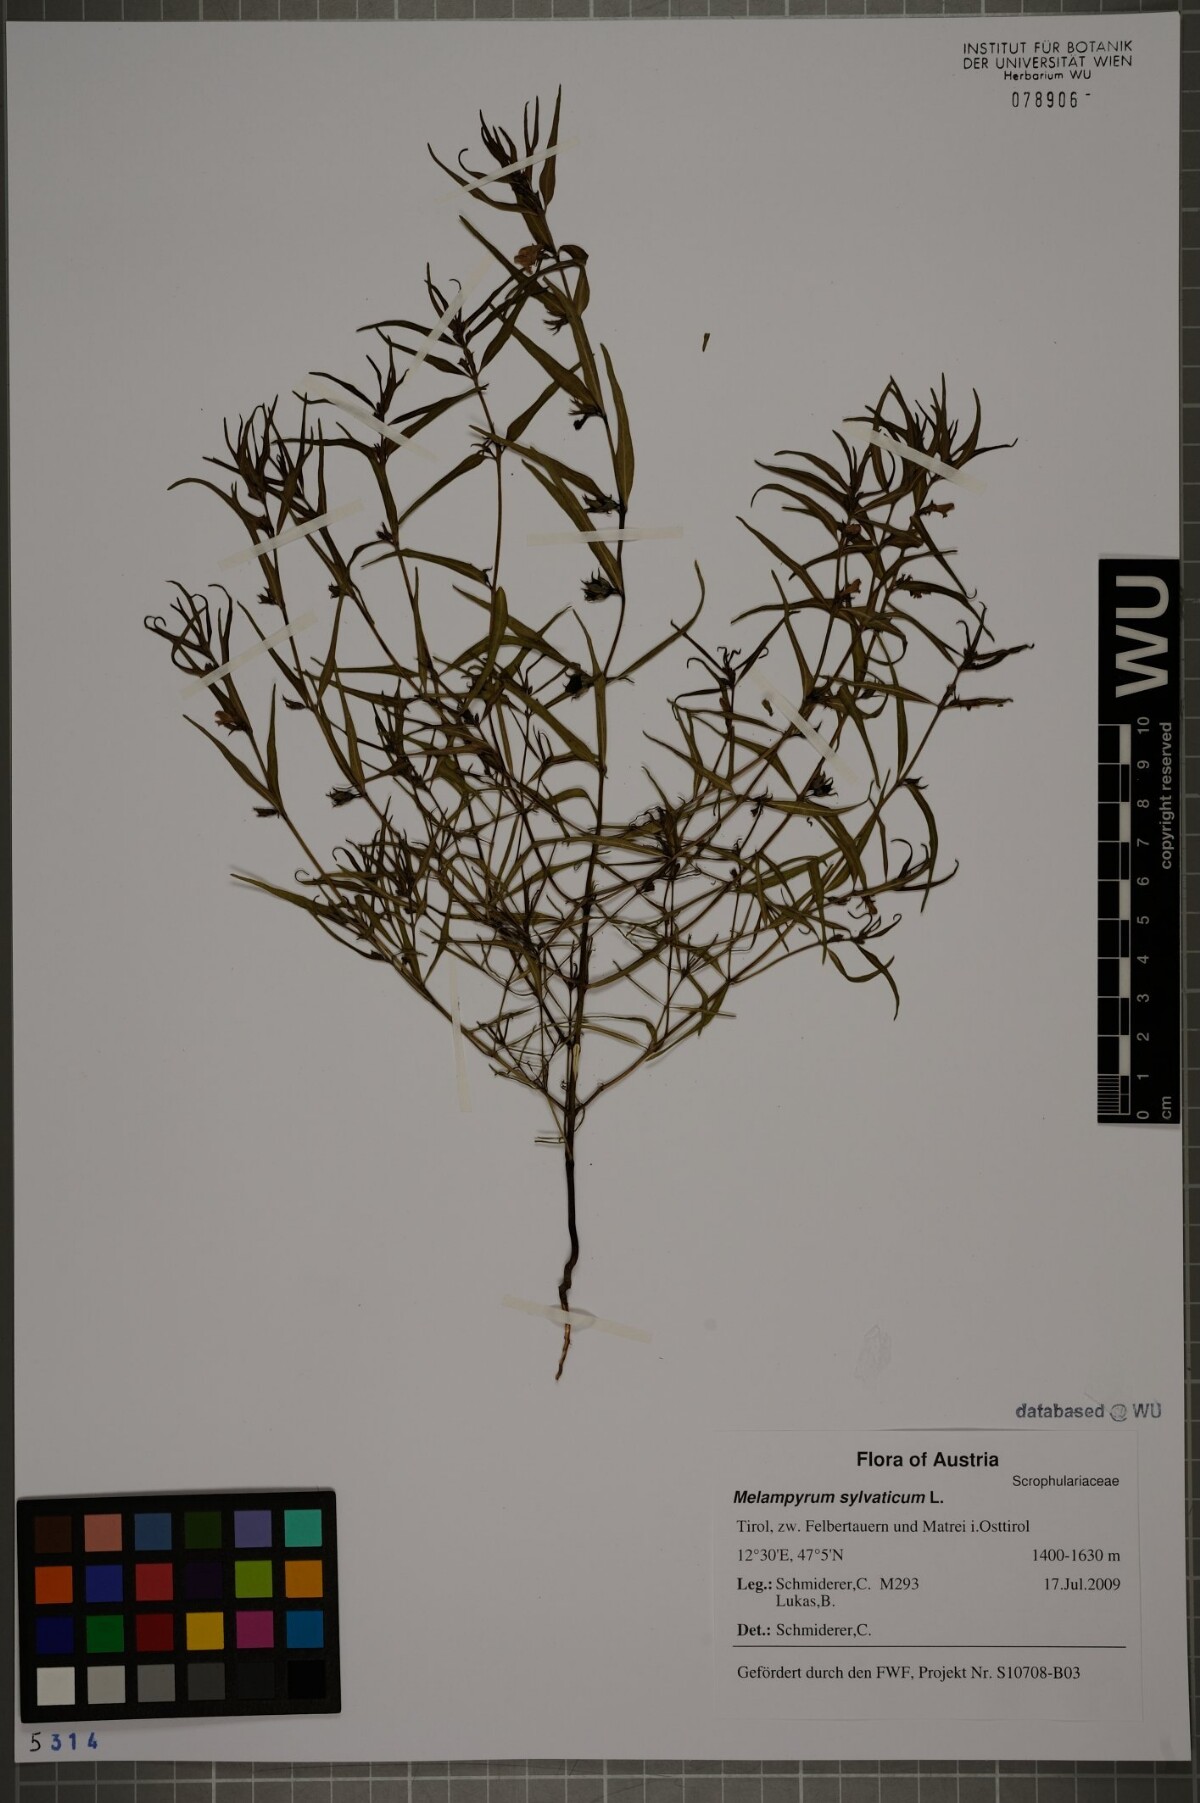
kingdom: Plantae
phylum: Tracheophyta
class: Magnoliopsida
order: Lamiales
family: Orobanchaceae
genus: Melampyrum
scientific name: Melampyrum sylvaticum
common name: Small cow-wheat
